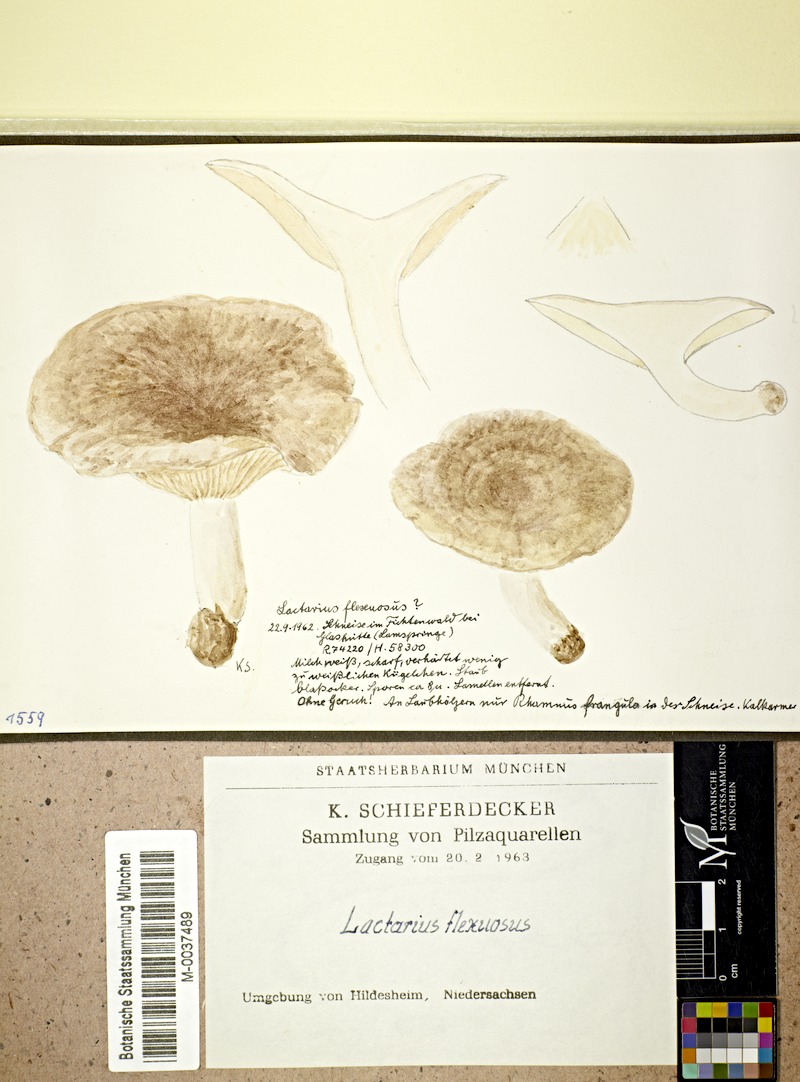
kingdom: Fungi
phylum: Basidiomycota
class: Agaricomycetes
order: Russulales
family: Russulaceae
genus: Lactarius
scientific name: Lactarius flexuosus
